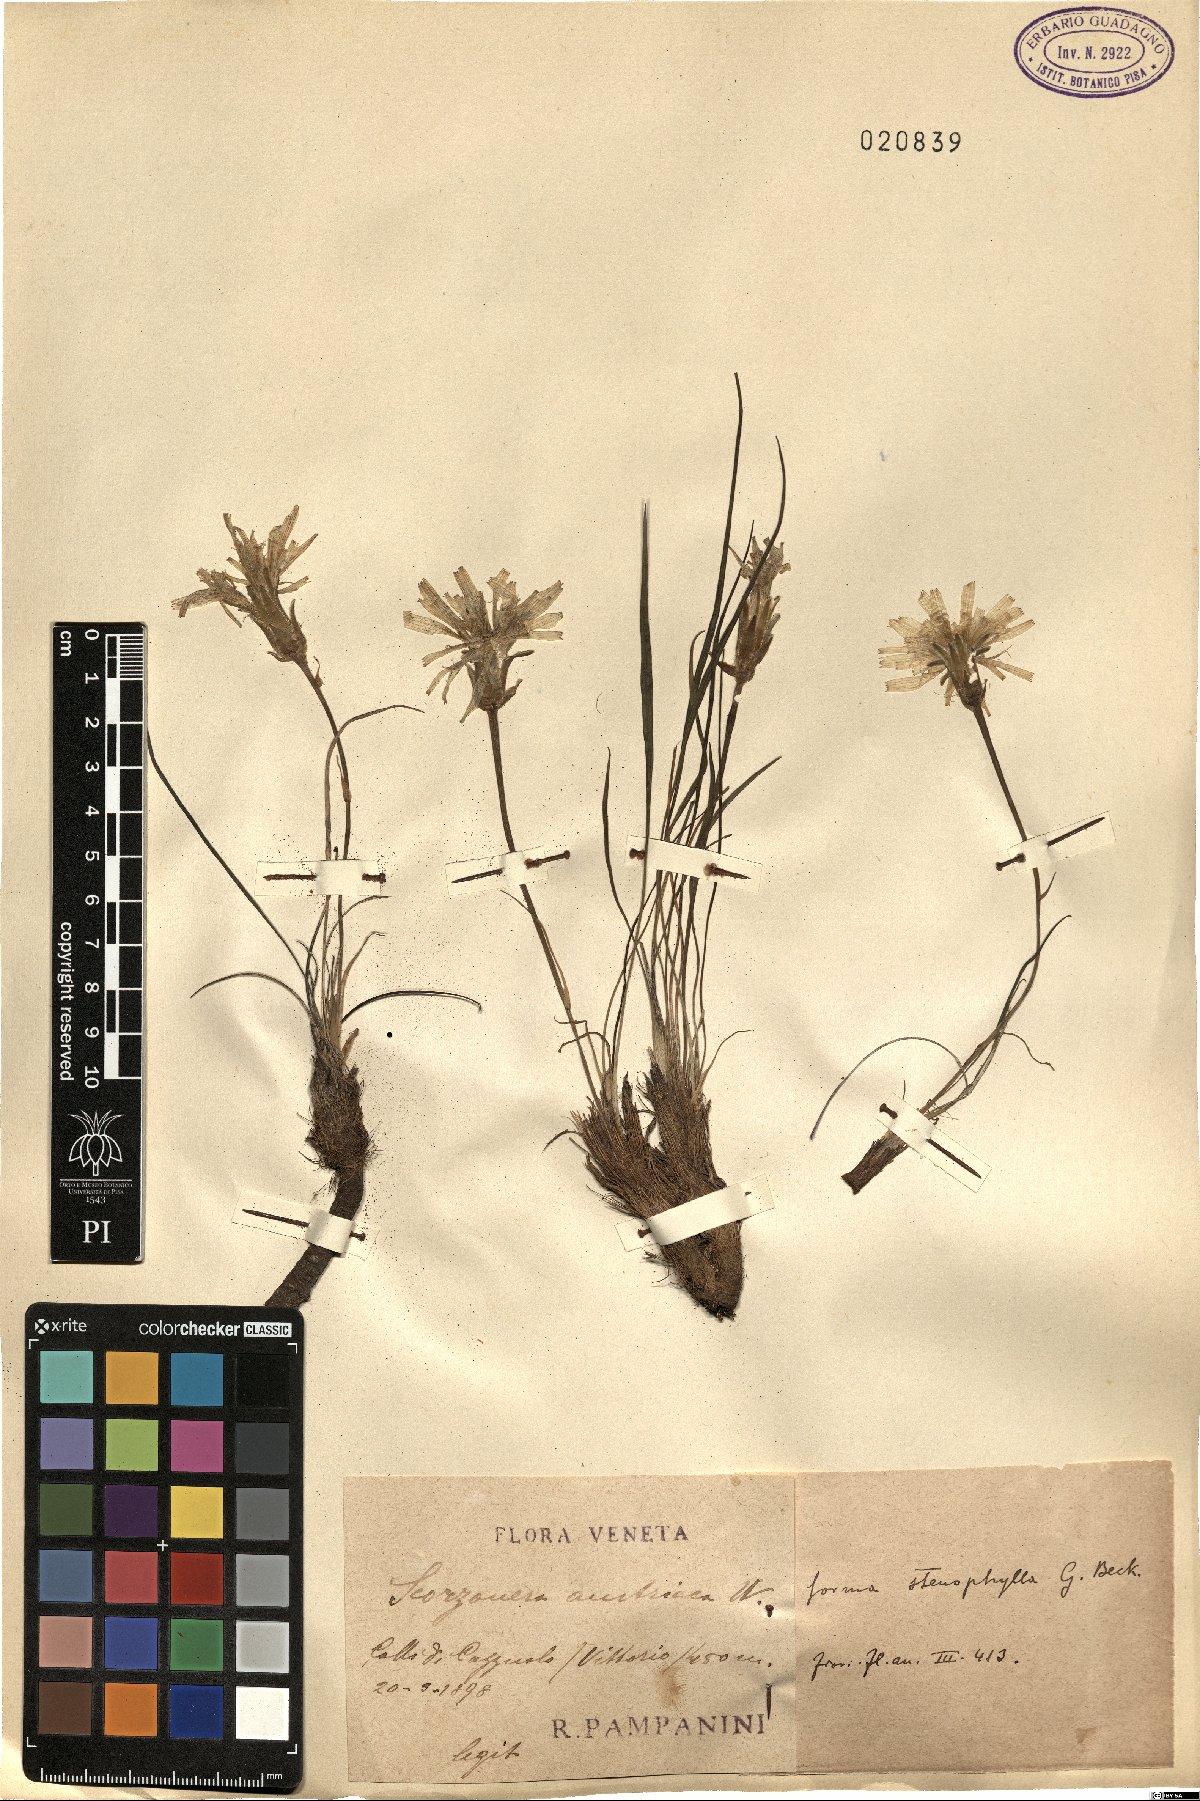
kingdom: Plantae
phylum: Tracheophyta
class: Magnoliopsida
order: Asterales
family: Asteraceae
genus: Takhtajaniantha
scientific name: Takhtajaniantha austriaca
